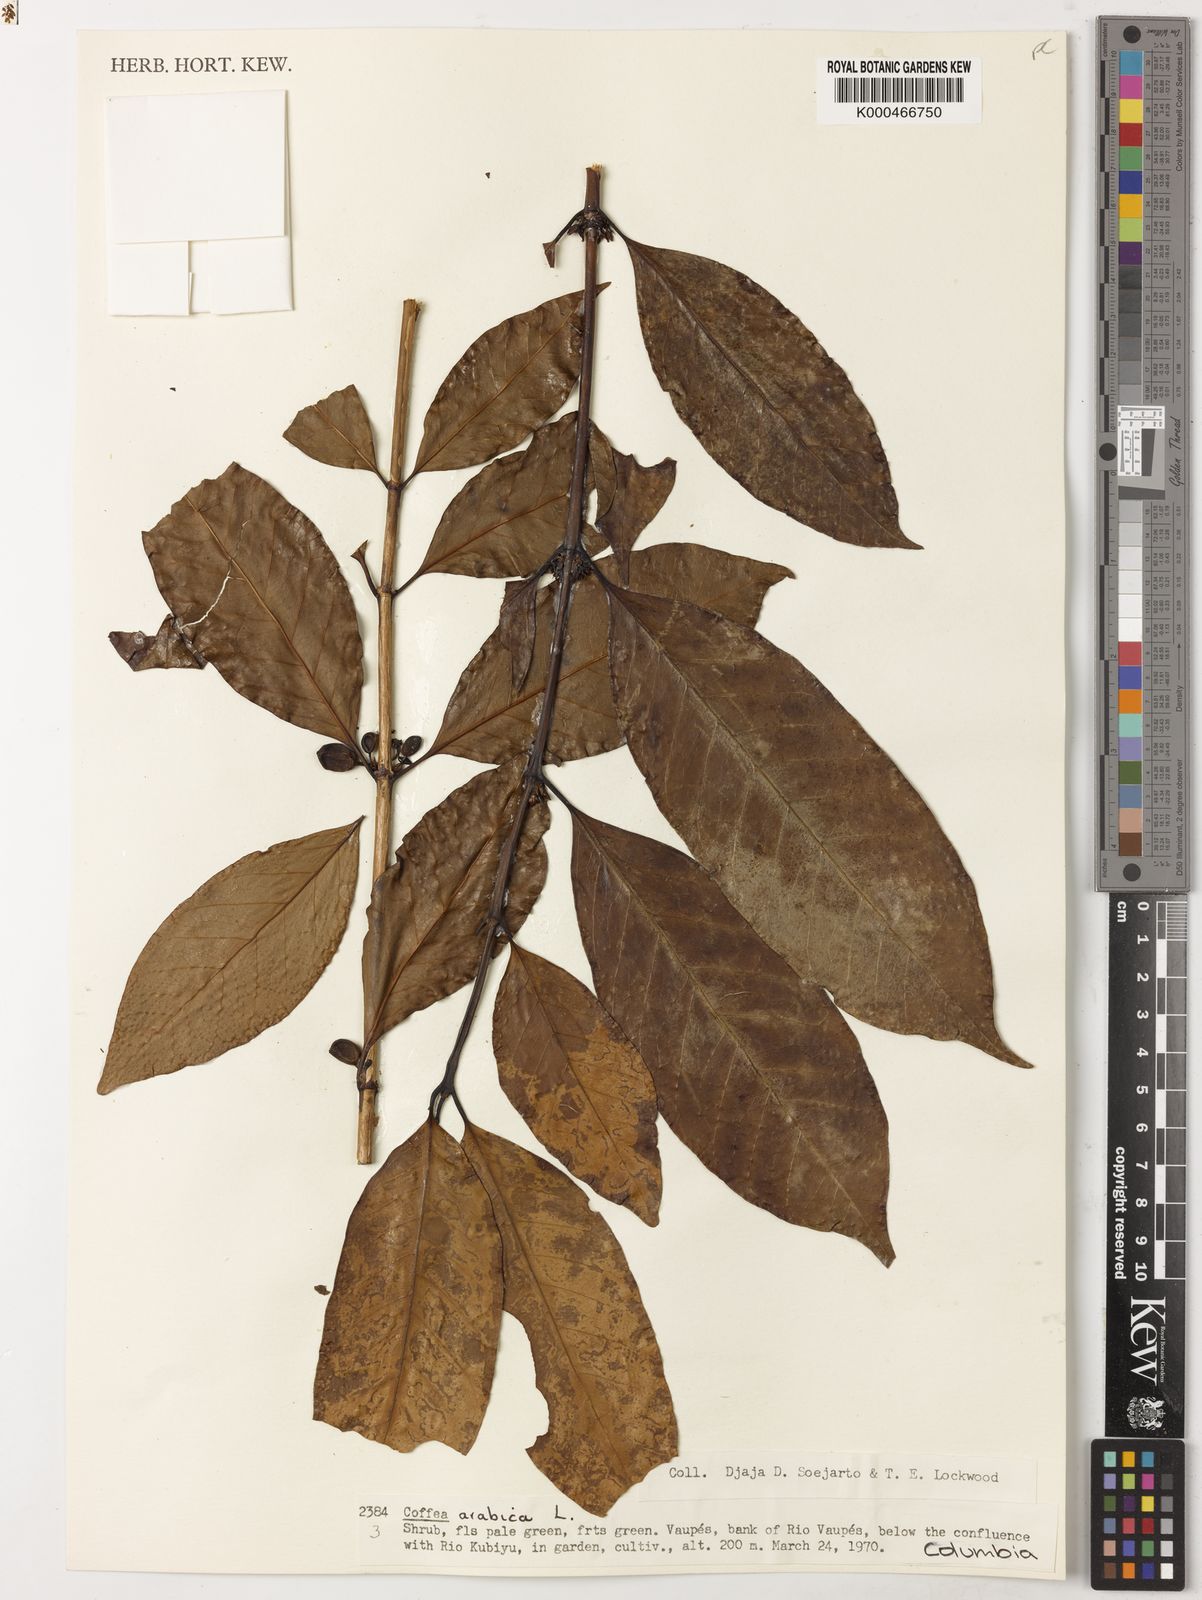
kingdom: Plantae
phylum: Tracheophyta
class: Magnoliopsida
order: Gentianales
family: Rubiaceae
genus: Coffea
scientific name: Coffea arabica
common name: Coffee
